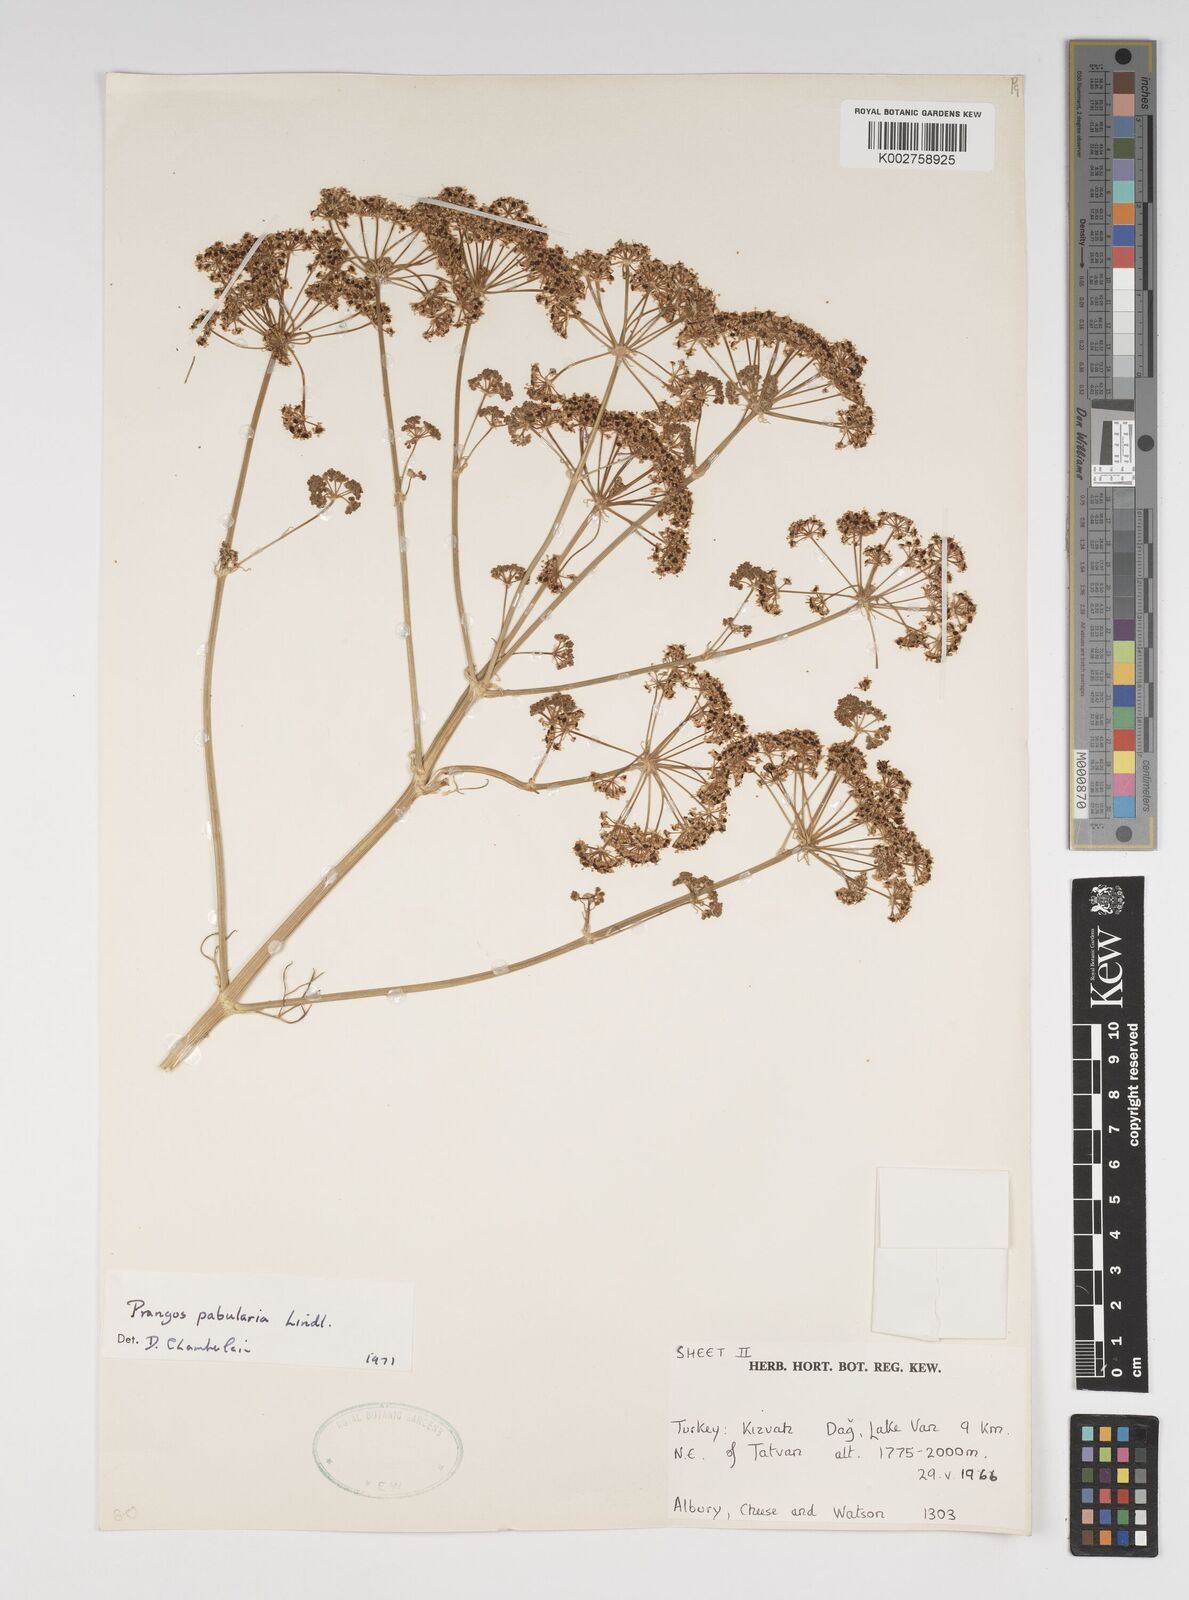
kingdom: Plantae
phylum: Tracheophyta
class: Magnoliopsida
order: Apiales
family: Apiaceae
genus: Prangos
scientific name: Prangos pabularia
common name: Yugan
